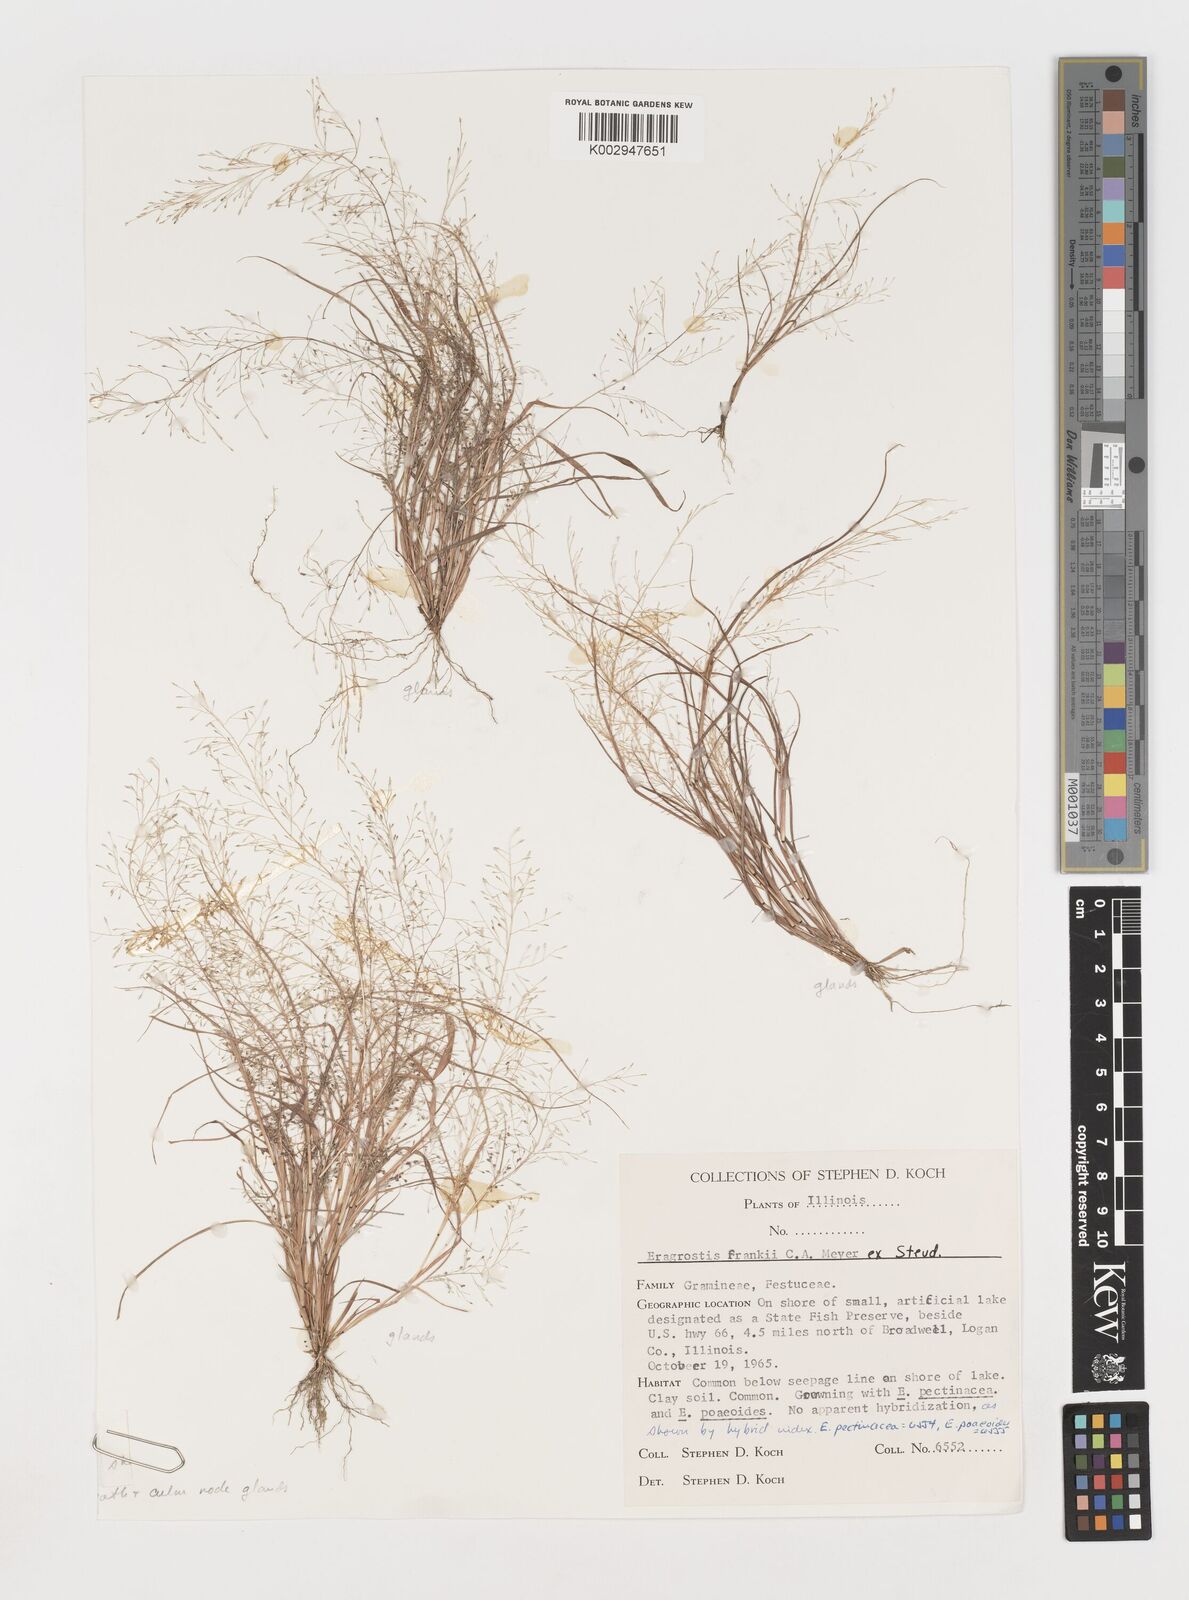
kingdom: Plantae
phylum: Tracheophyta
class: Liliopsida
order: Poales
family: Poaceae
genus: Eragrostis
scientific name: Eragrostis frankii
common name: Frank's lovegrass
